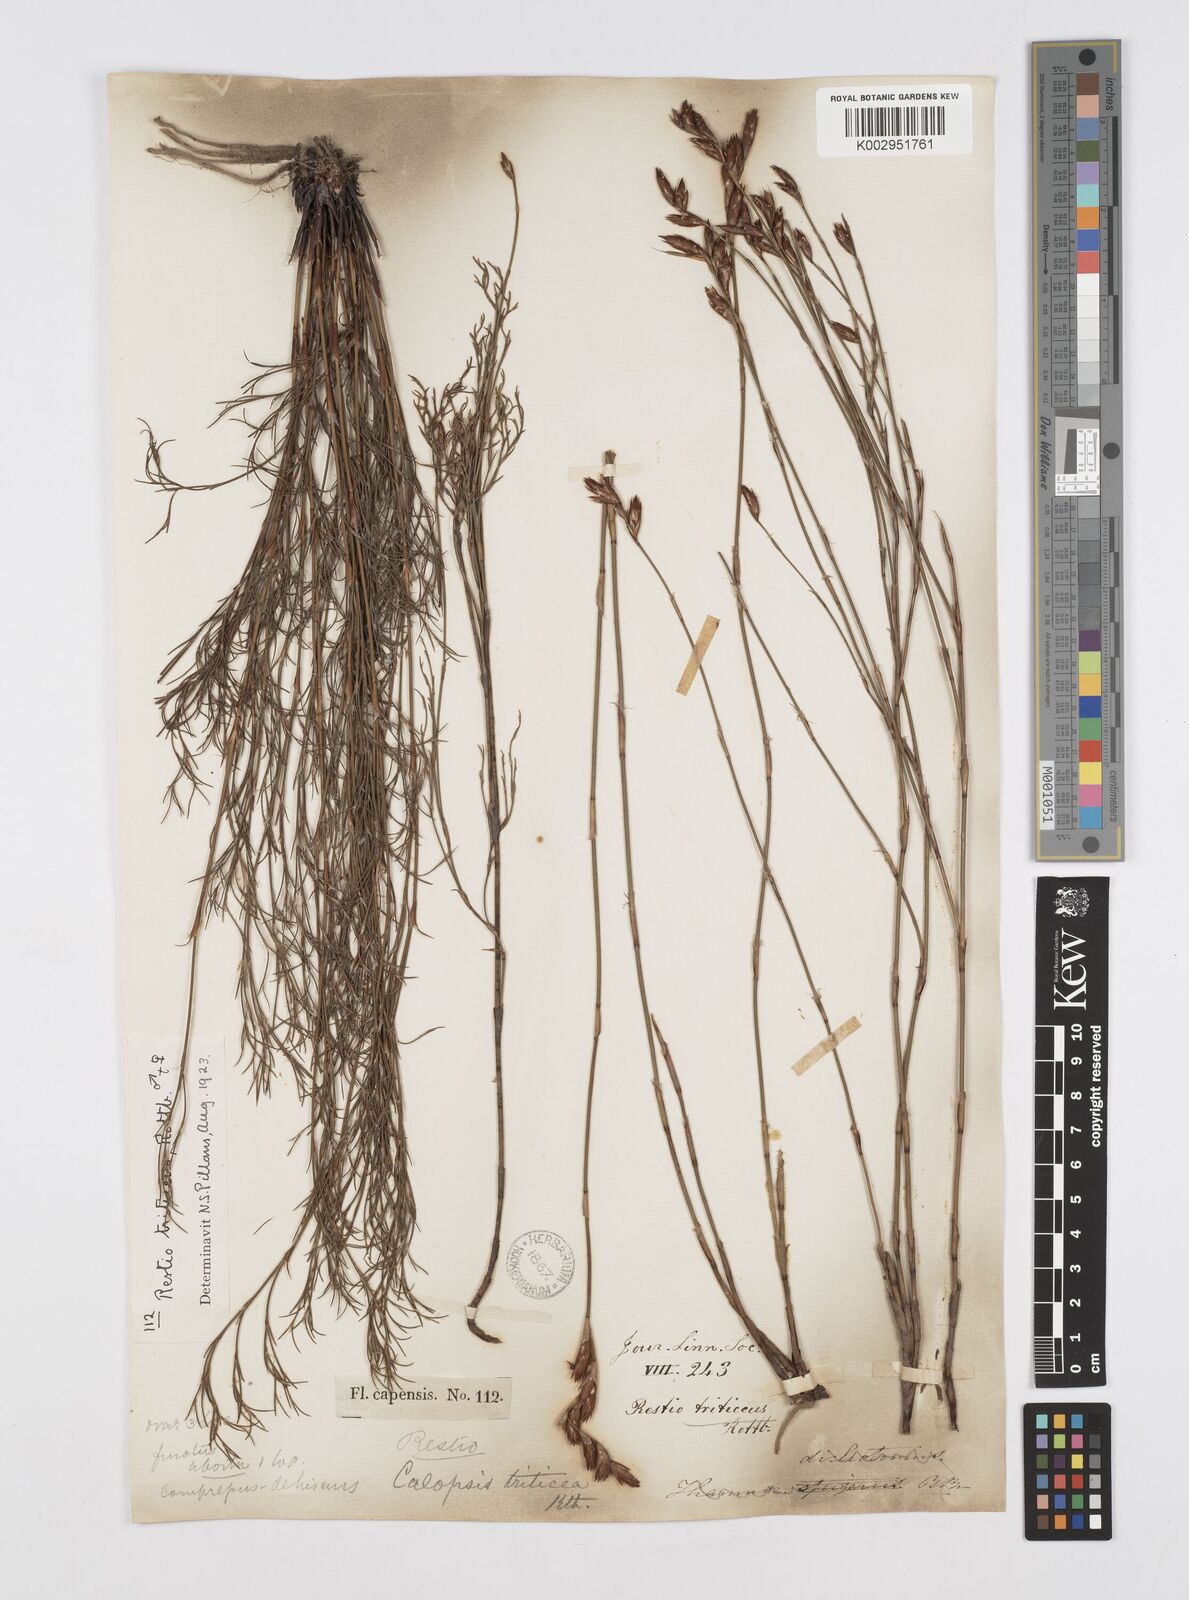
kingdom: Plantae
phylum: Tracheophyta
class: Liliopsida
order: Poales
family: Restionaceae
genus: Restio
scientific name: Restio triticeus
